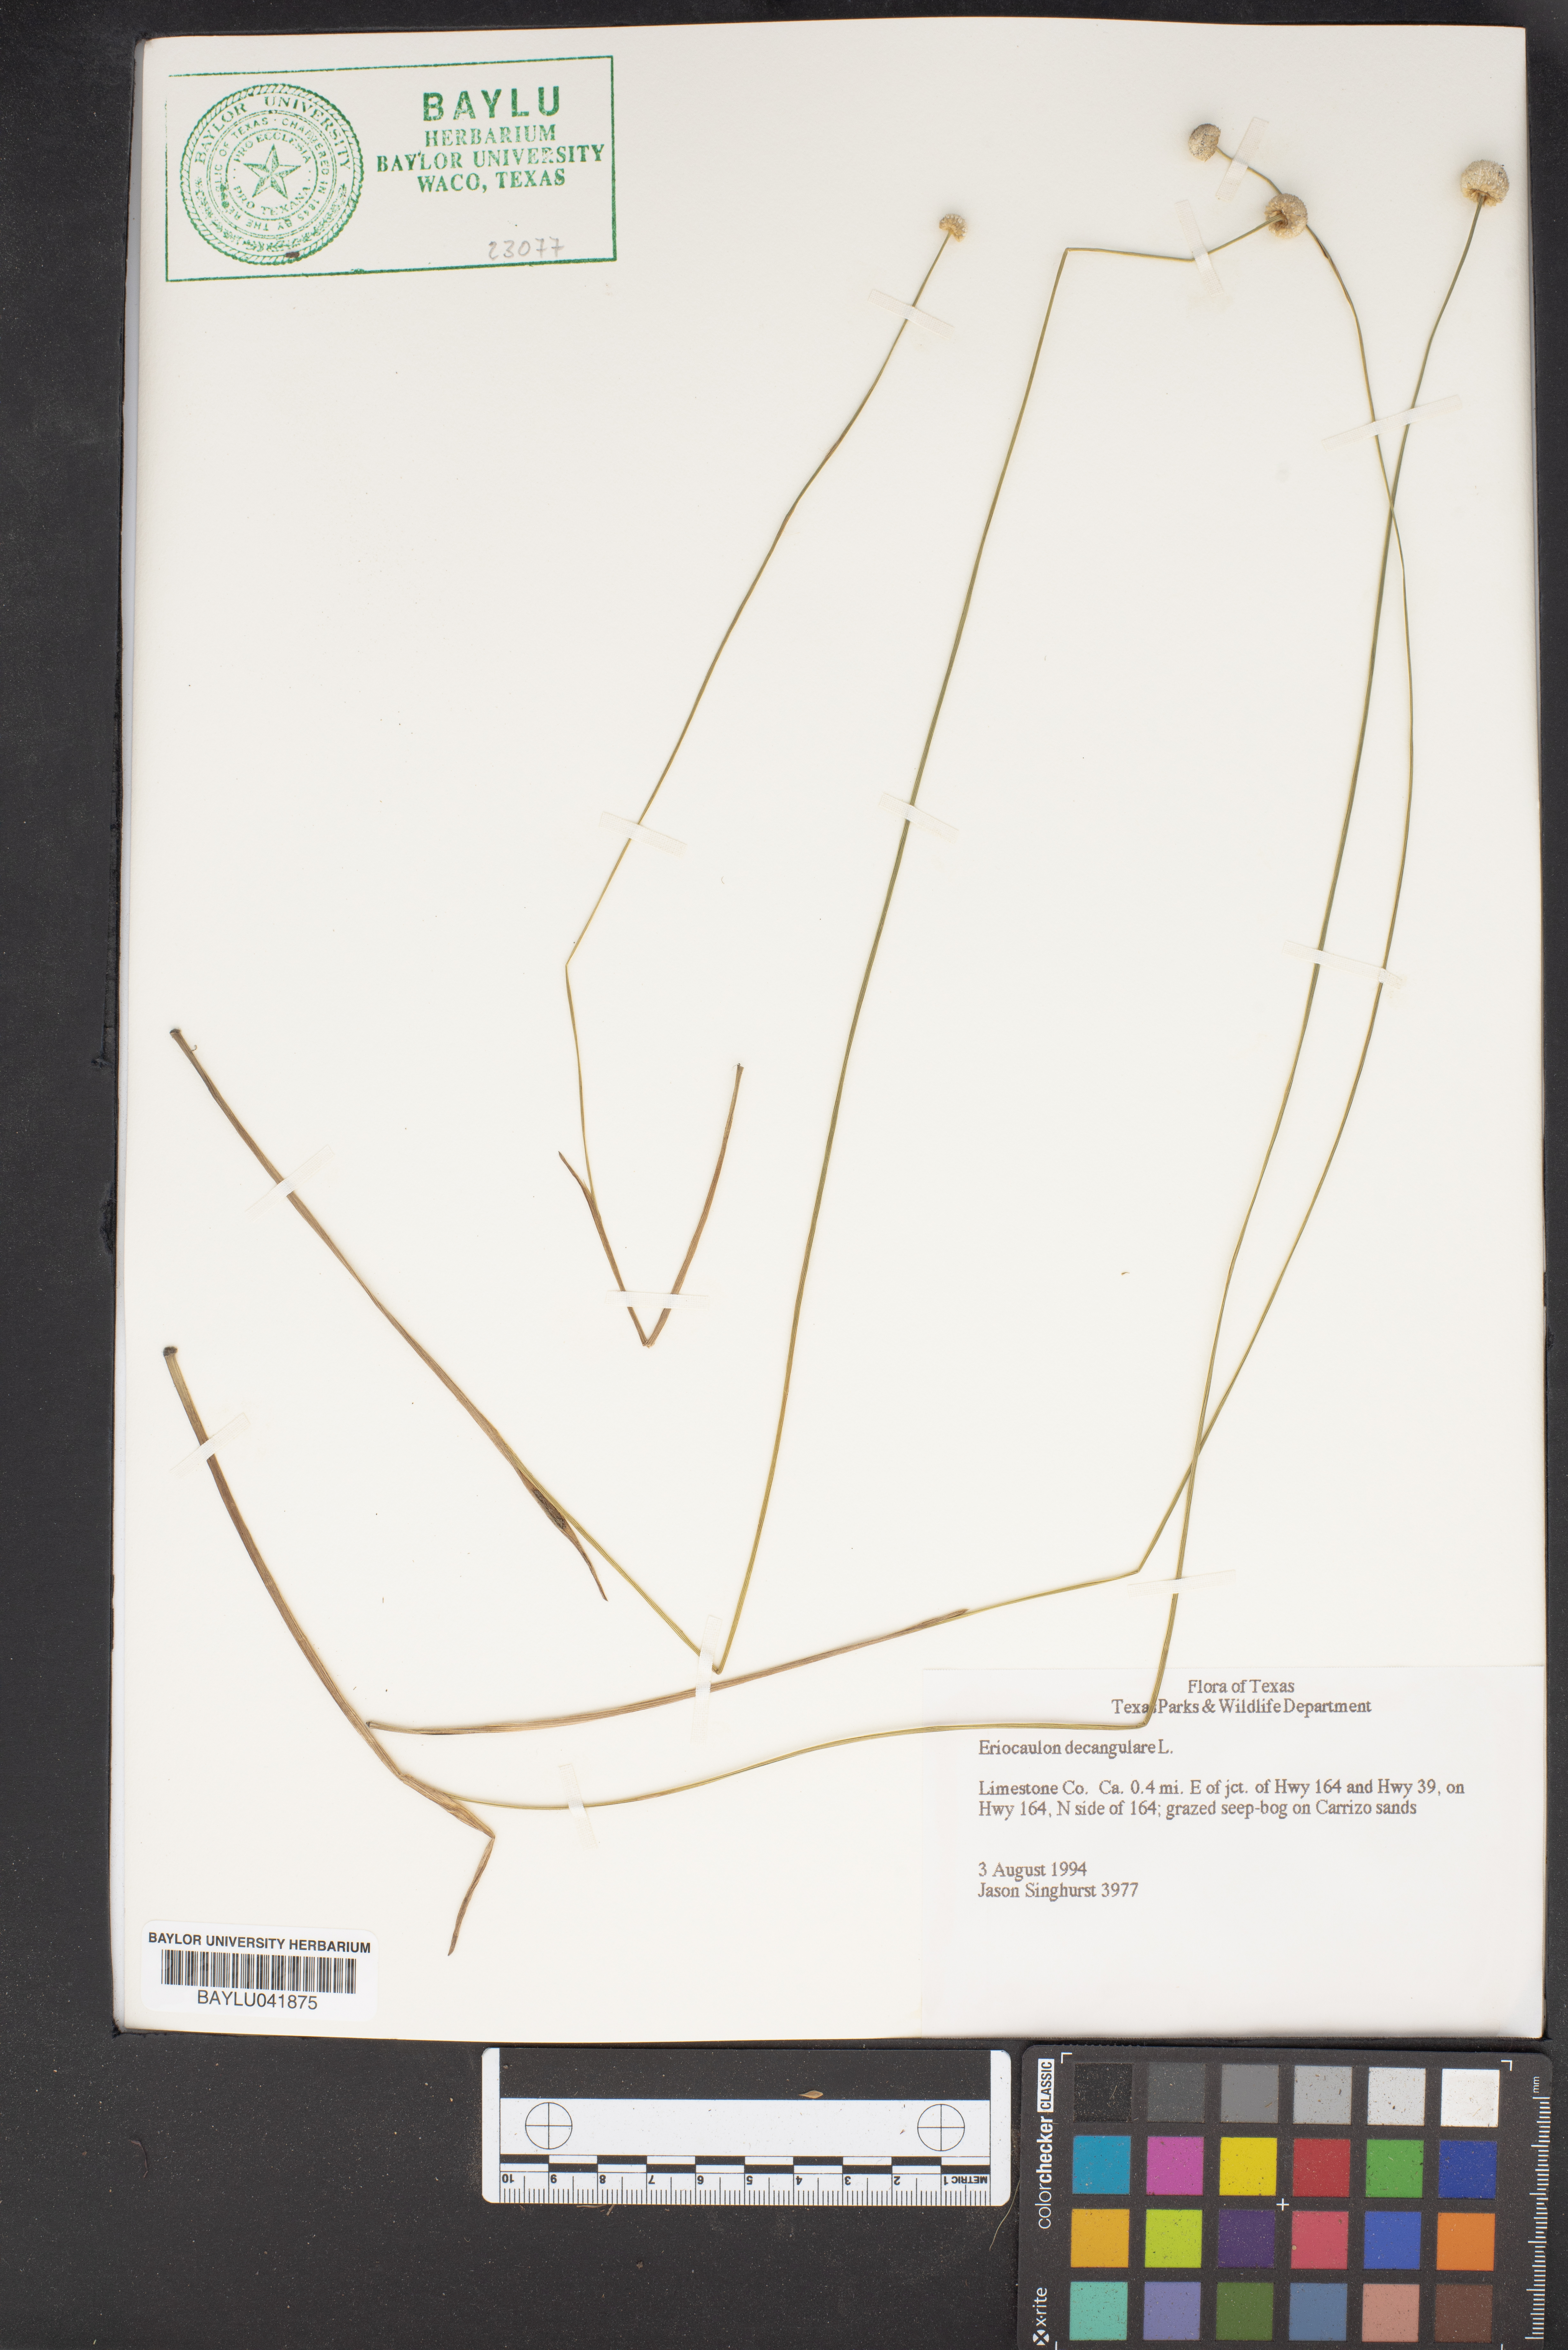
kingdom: Plantae
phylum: Tracheophyta
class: Liliopsida
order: Poales
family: Eriocaulaceae
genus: Eriocaulon
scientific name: Eriocaulon decangulare
